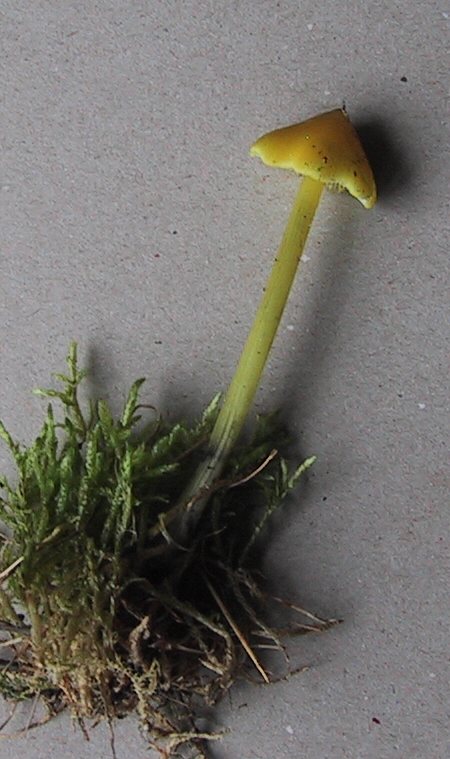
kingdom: Fungi
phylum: Basidiomycota
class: Agaricomycetes
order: Agaricales
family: Hygrophoraceae
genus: Hygrocybe
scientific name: Hygrocybe conica
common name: kegle-vokshat
